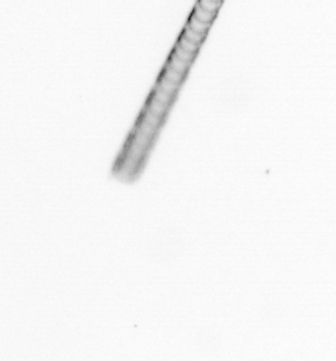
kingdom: Chromista
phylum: Ochrophyta
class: Bacillariophyceae
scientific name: Bacillariophyceae
